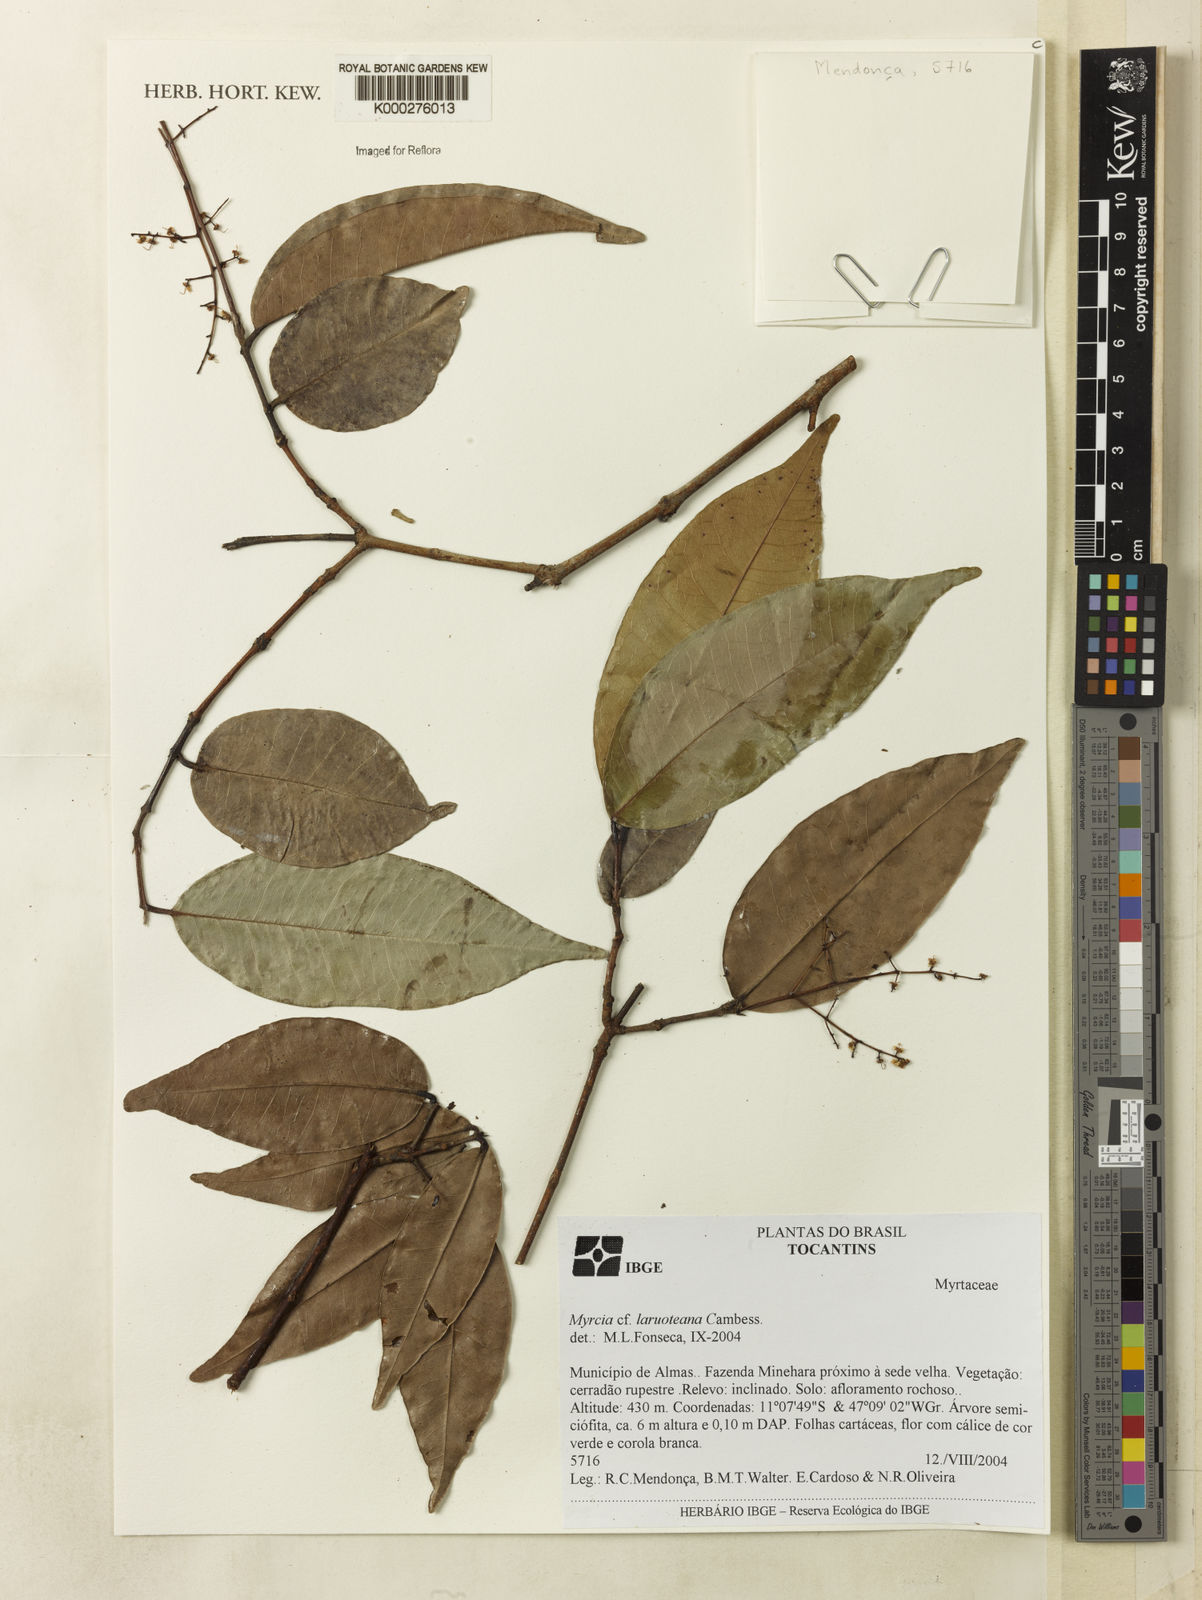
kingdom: Plantae
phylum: Tracheophyta
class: Magnoliopsida
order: Myrtales
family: Myrtaceae
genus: Myrcia
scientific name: Myrcia laruotteana
